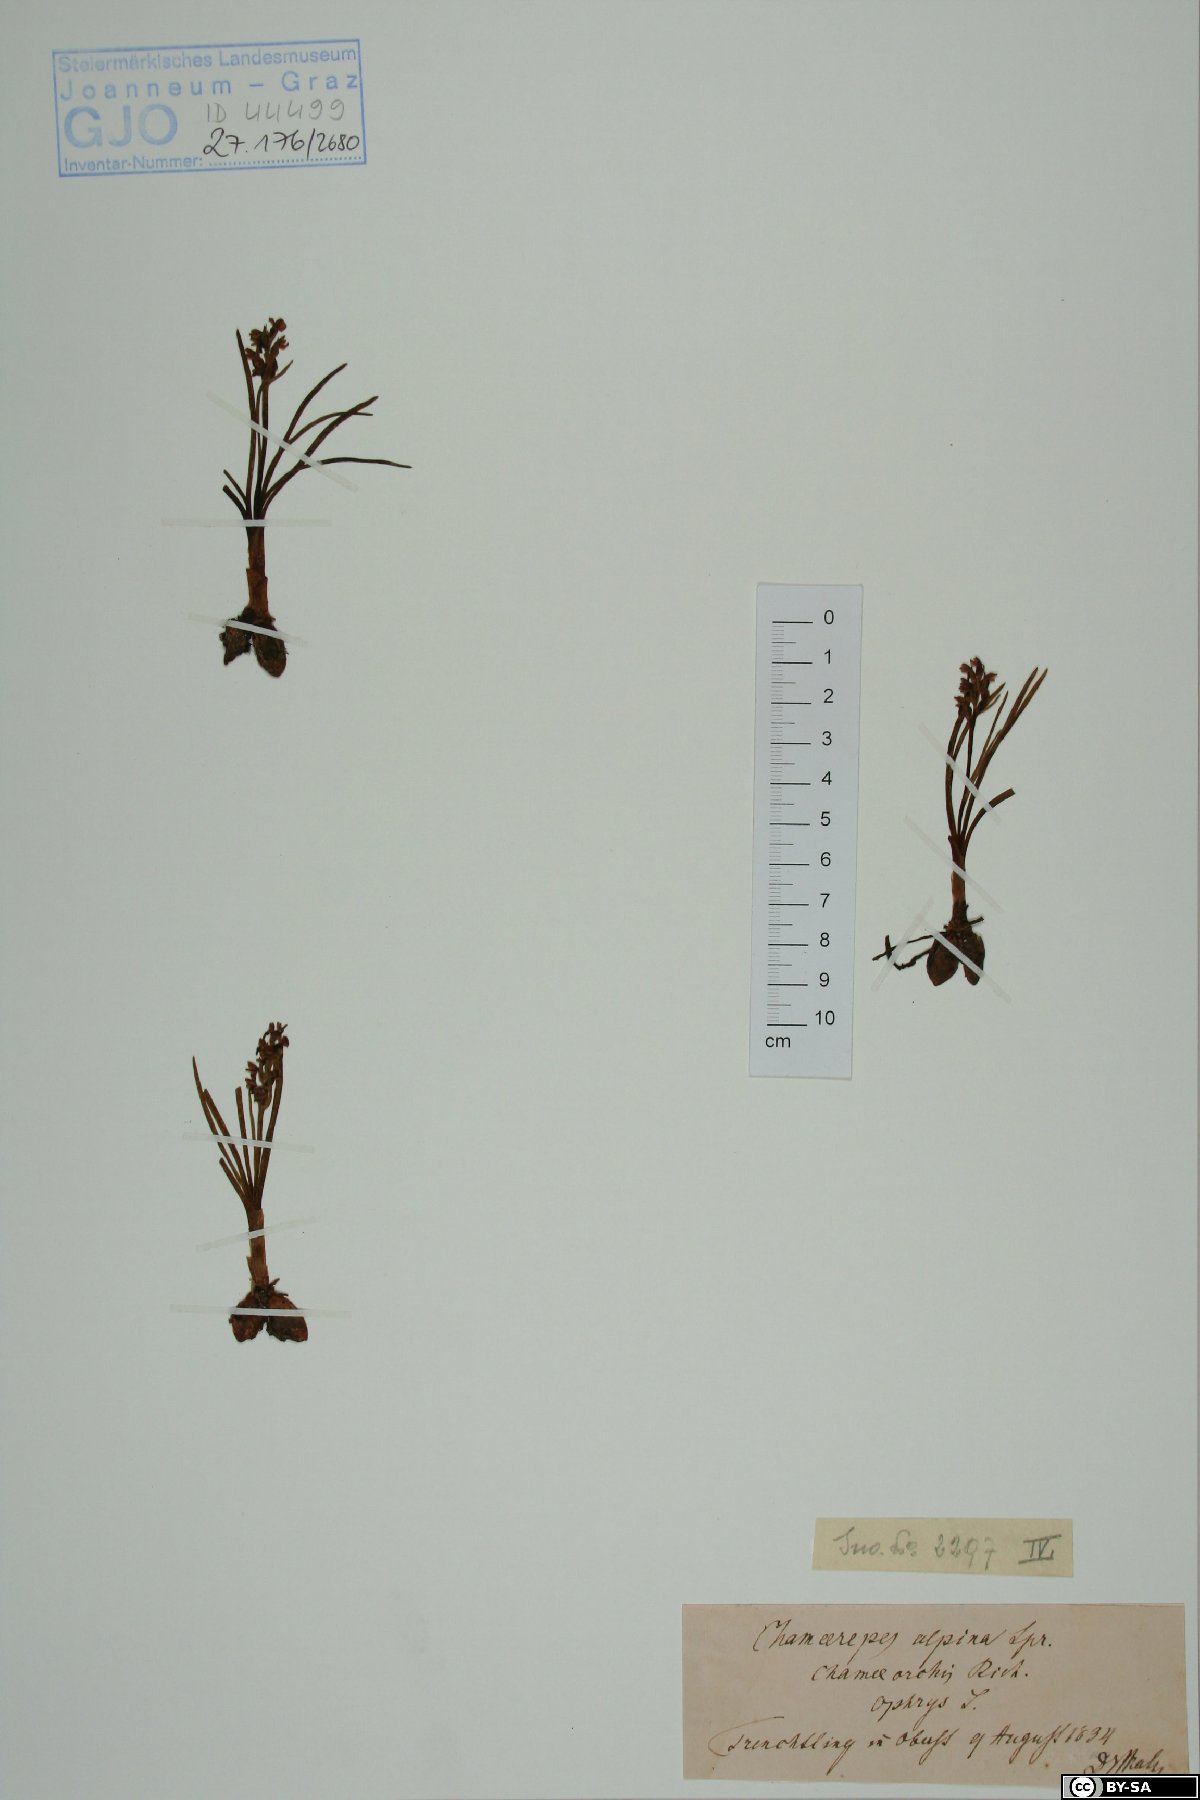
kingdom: Plantae
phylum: Tracheophyta
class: Liliopsida
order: Asparagales
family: Orchidaceae
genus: Chamorchis
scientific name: Chamorchis alpina
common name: Alpine chamorchis
